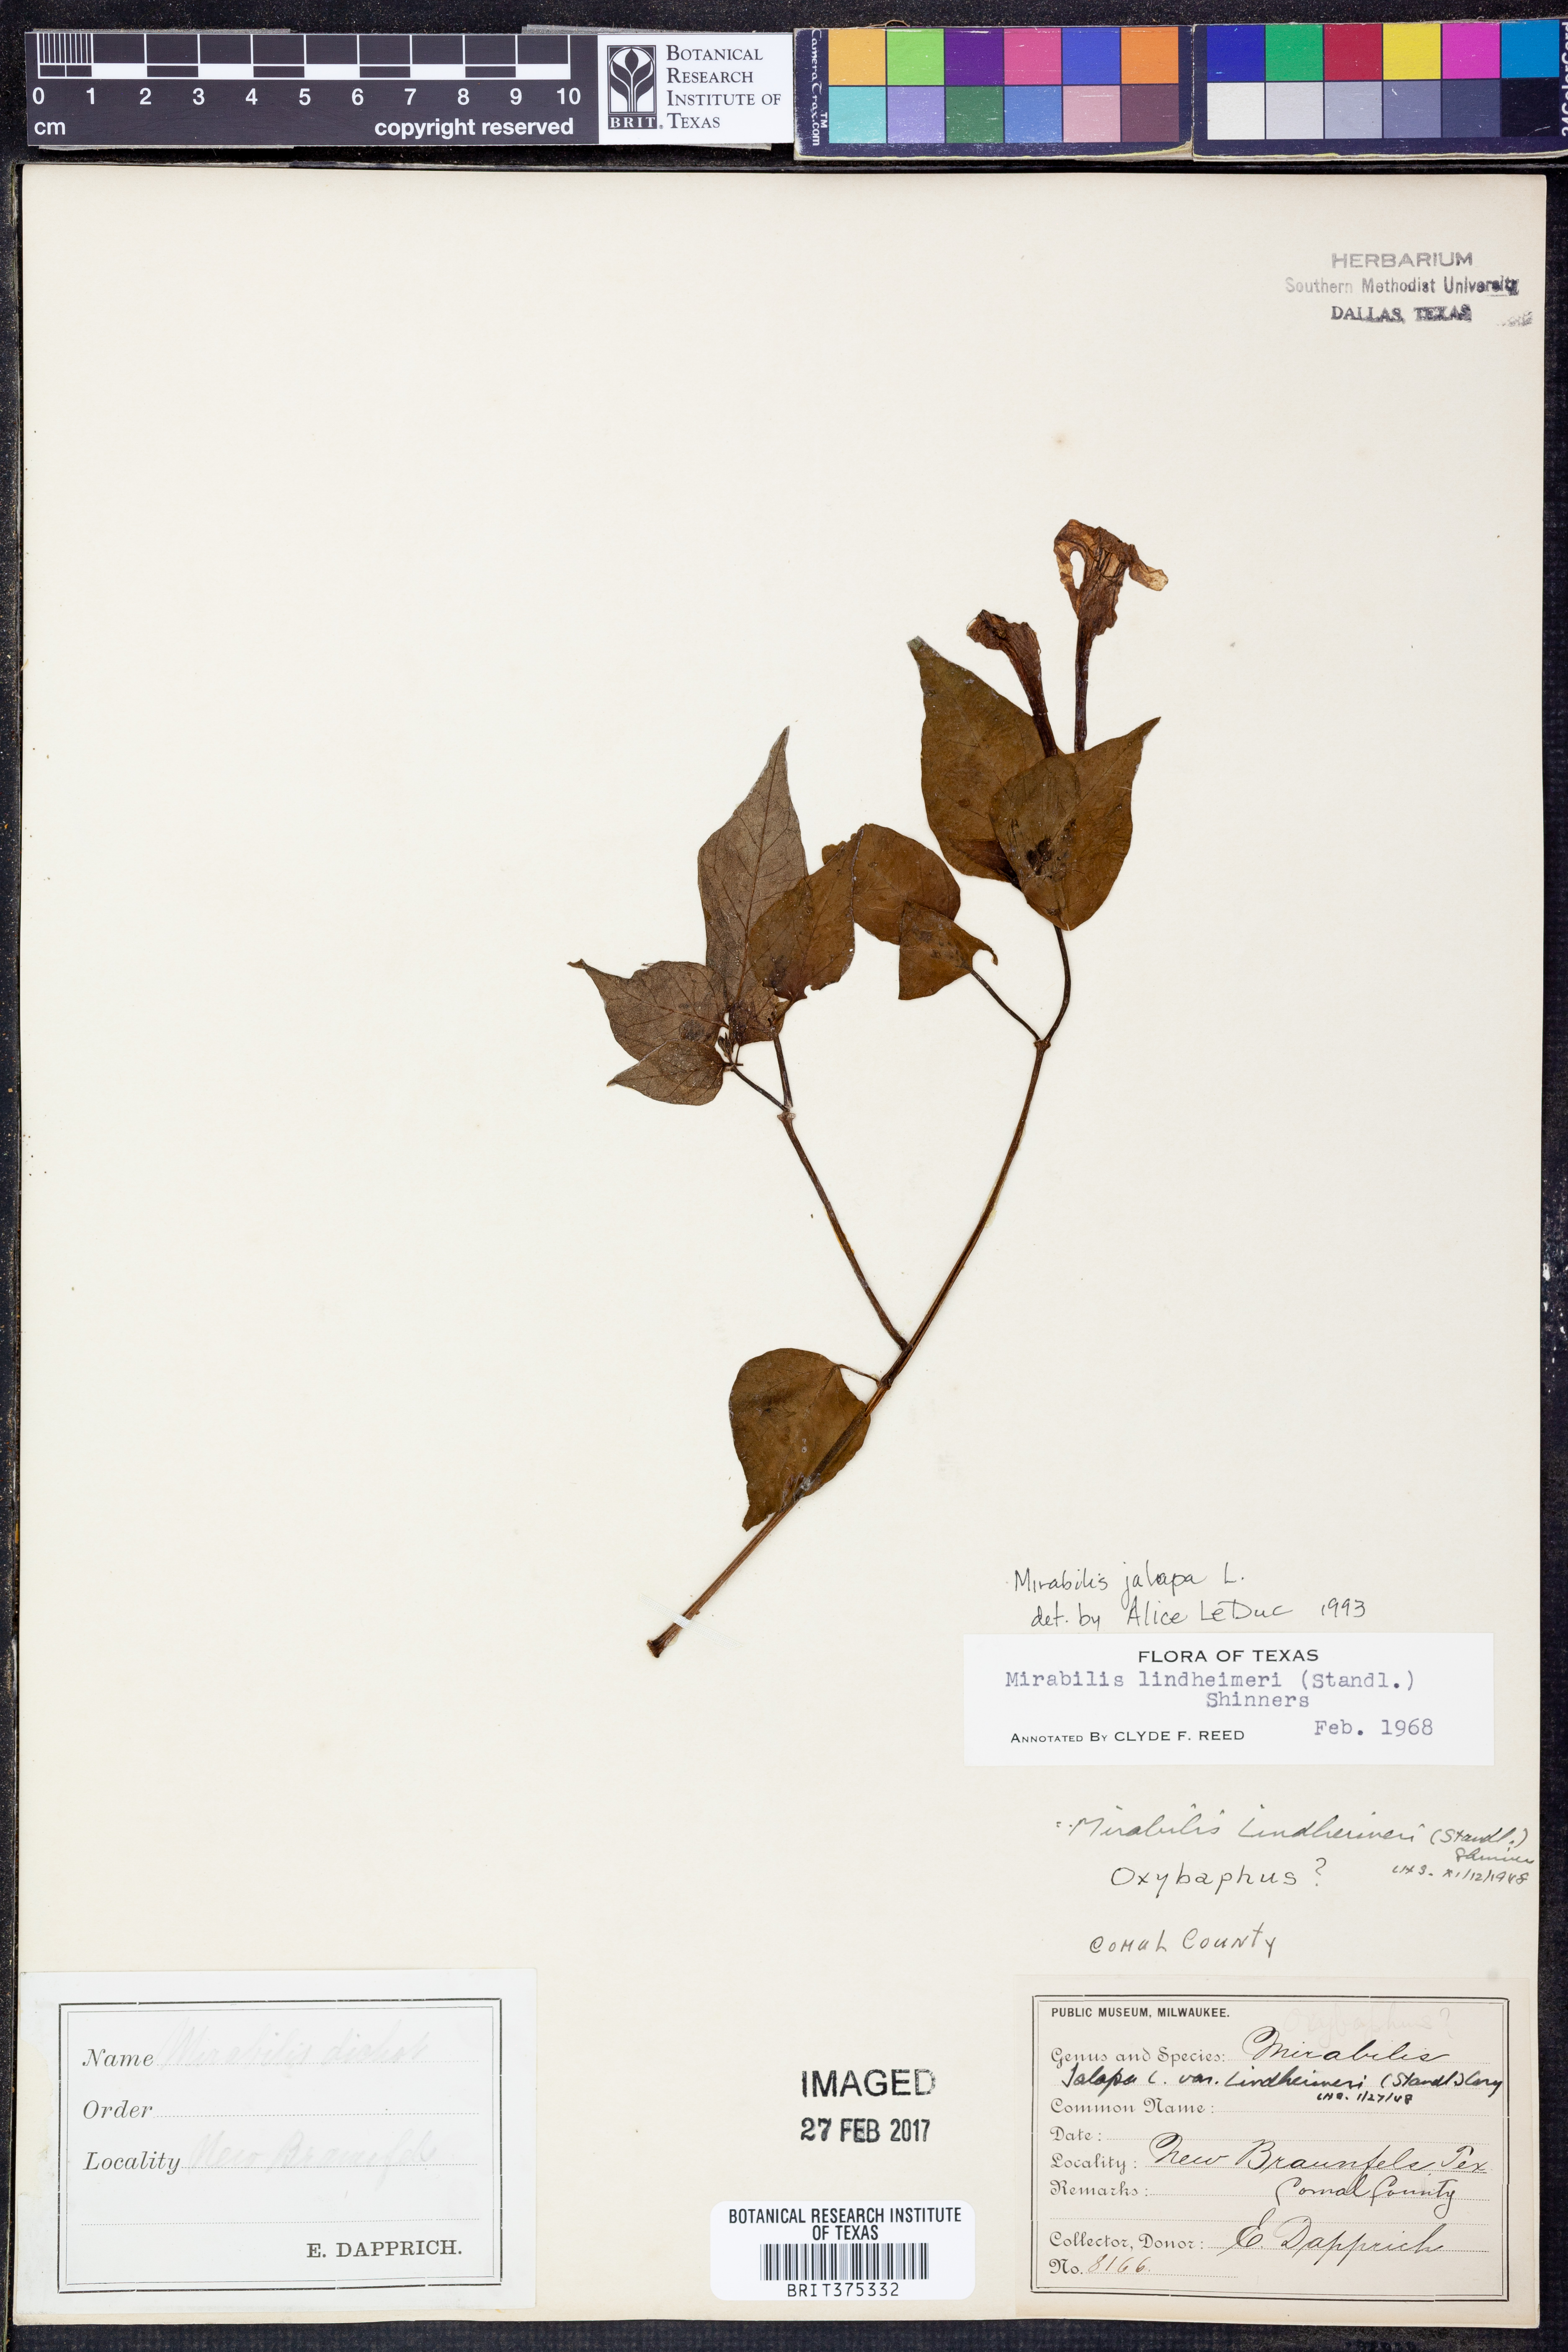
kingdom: Plantae
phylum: Tracheophyta
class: Magnoliopsida
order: Caryophyllales
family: Nyctaginaceae
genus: Mirabilis
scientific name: Mirabilis jalapa
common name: Marvel-of-peru
